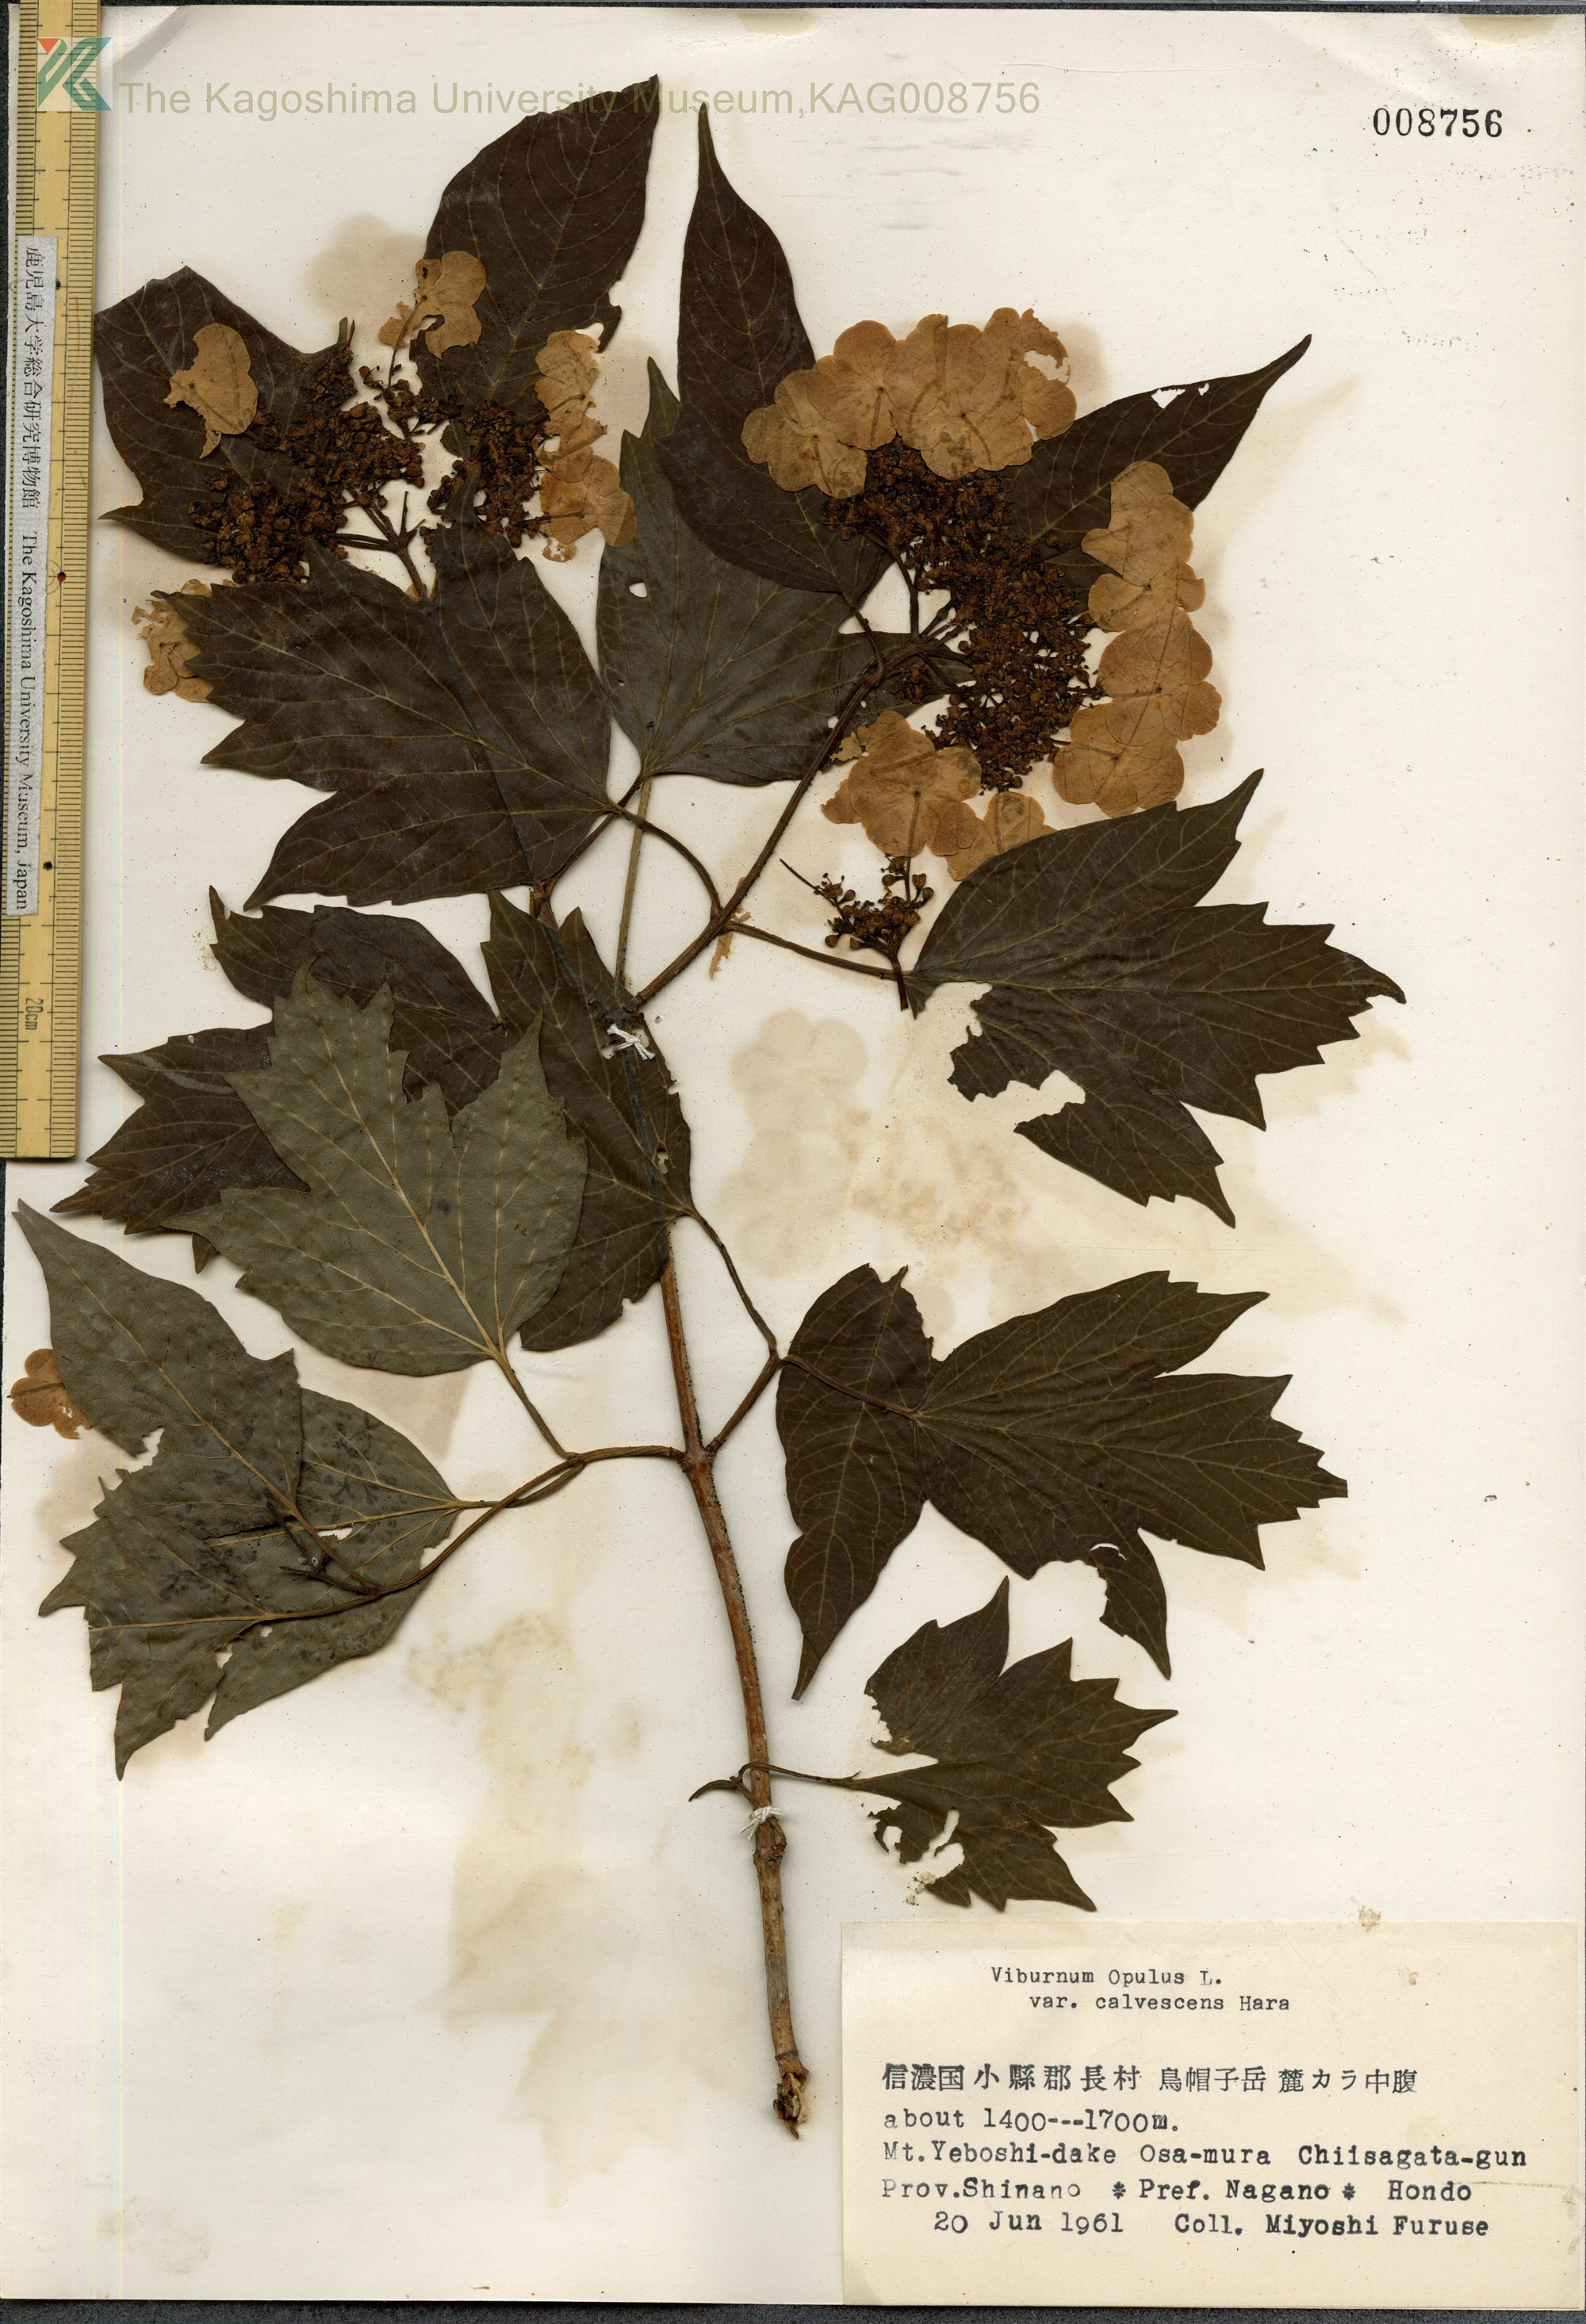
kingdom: Plantae
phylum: Tracheophyta
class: Magnoliopsida
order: Dipsacales
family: Viburnaceae
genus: Viburnum
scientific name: Viburnum opulus
